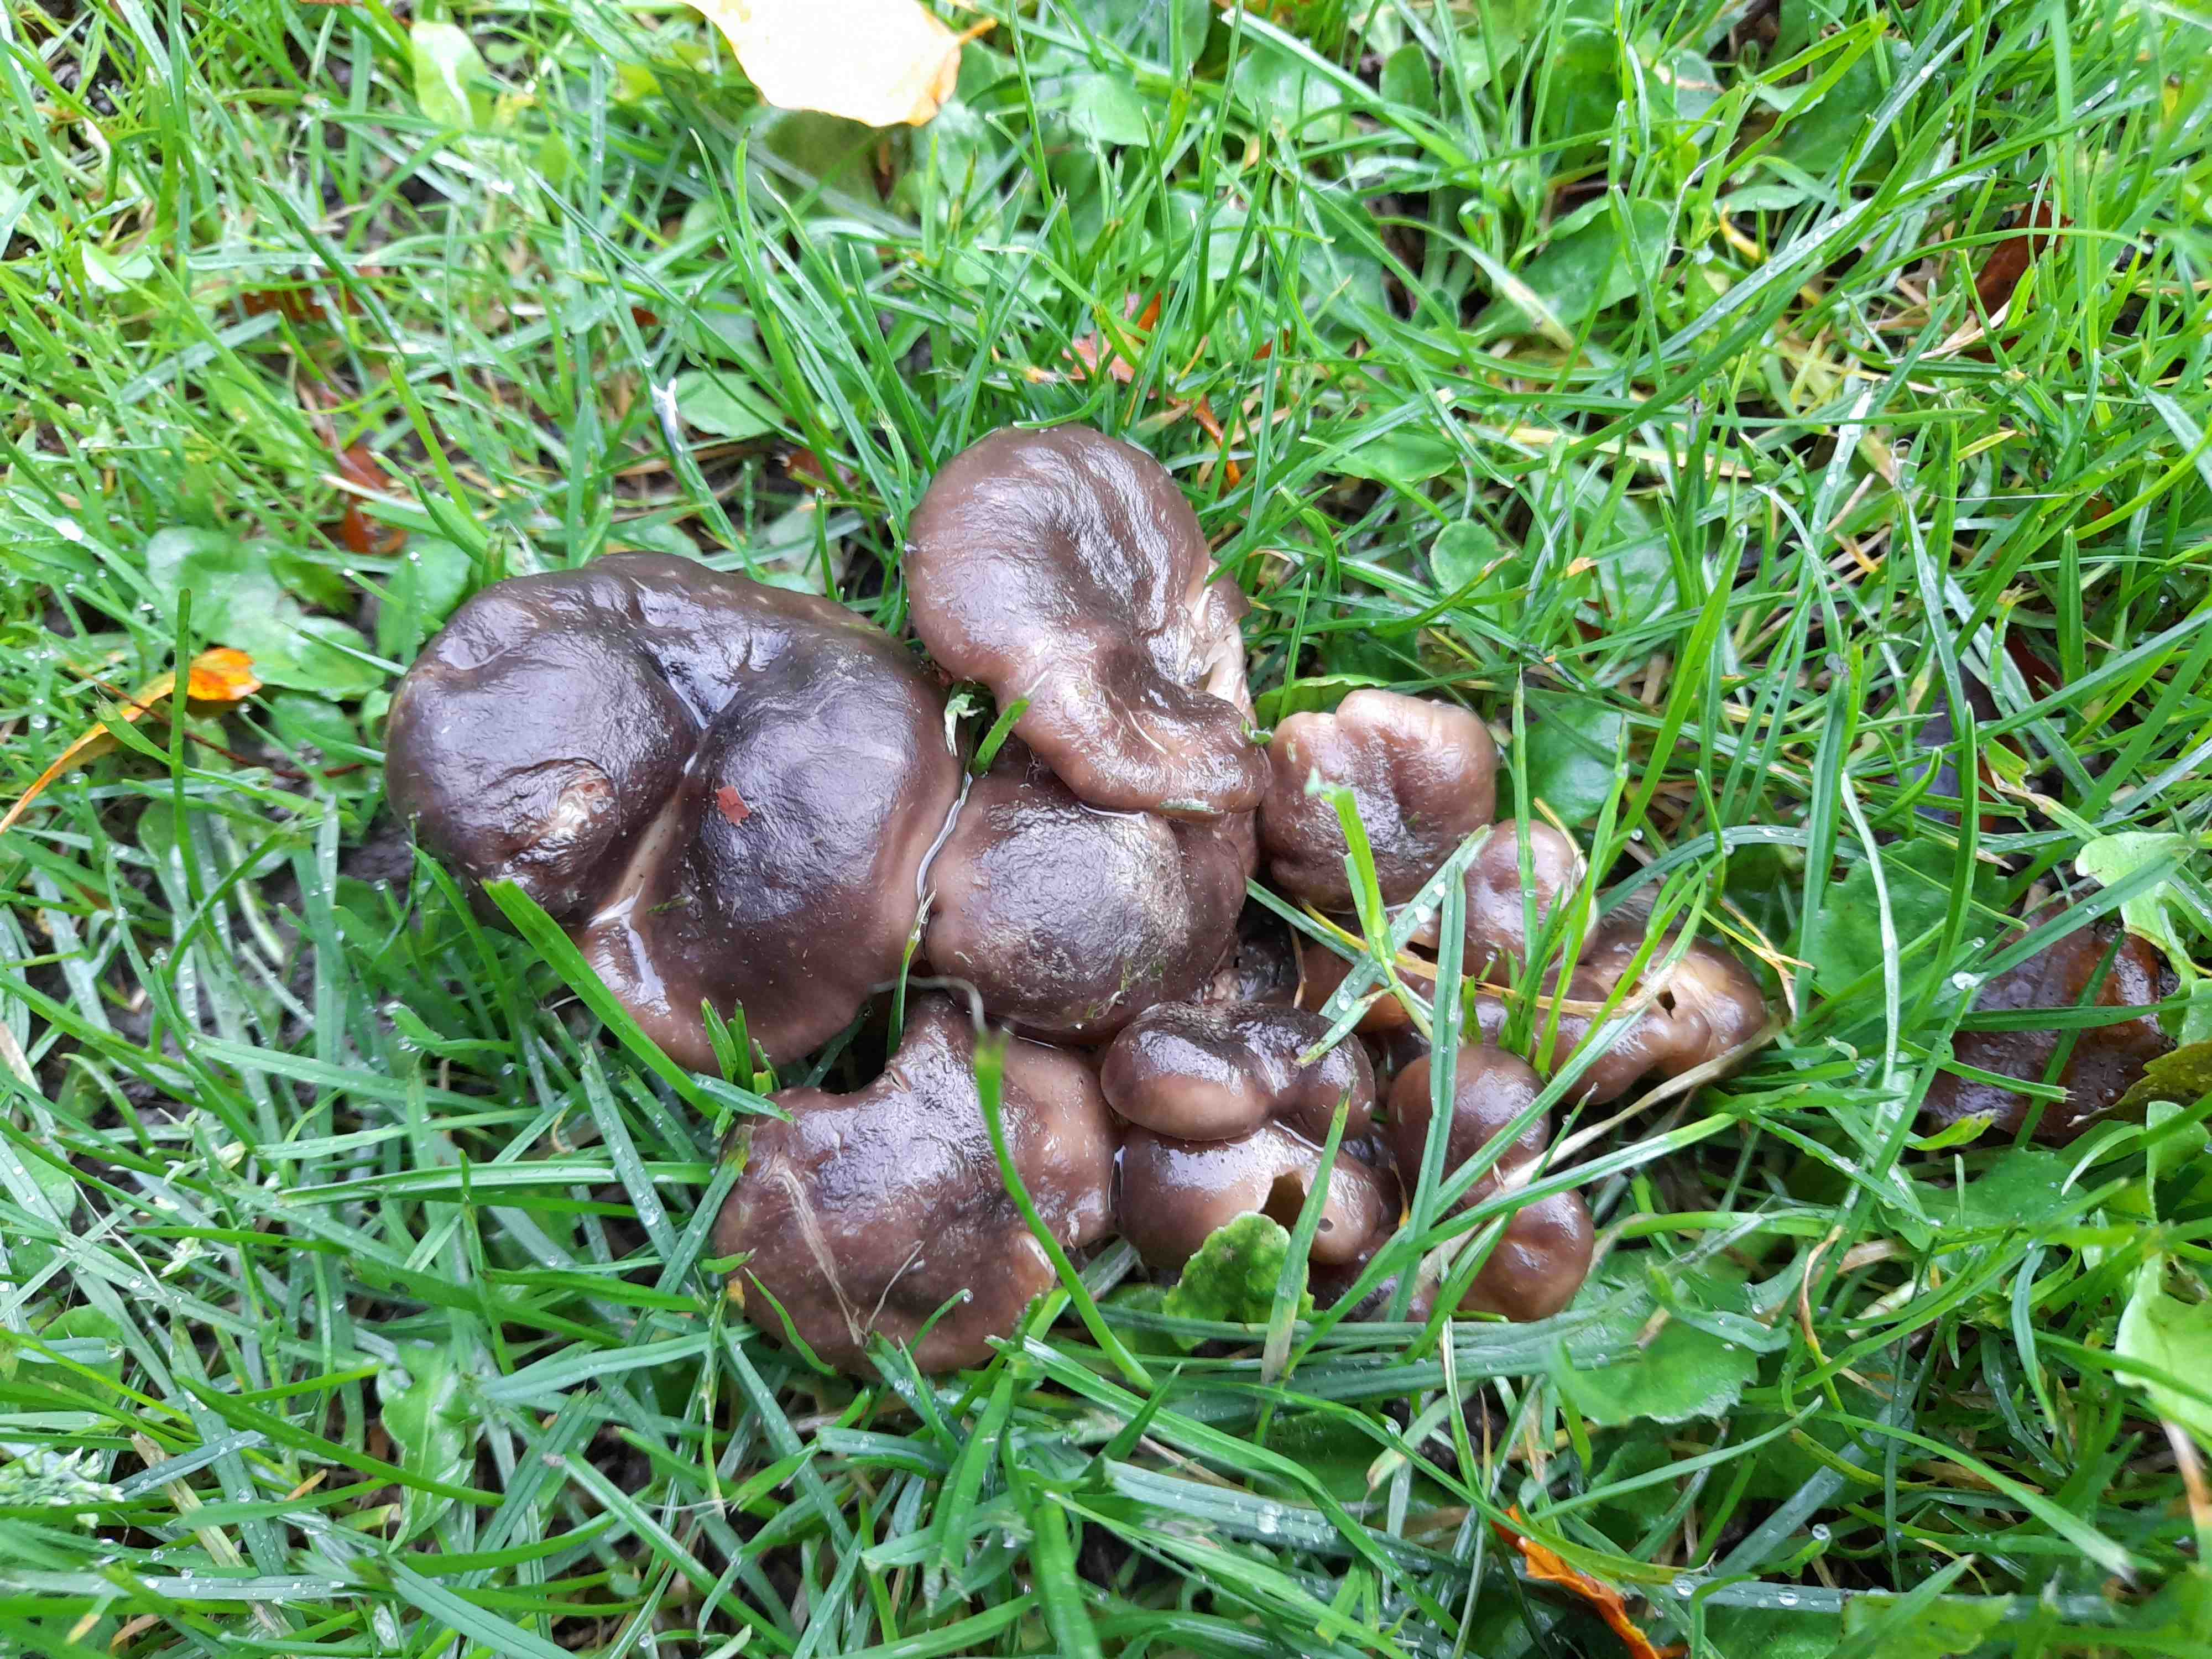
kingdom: Fungi
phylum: Basidiomycota
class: Agaricomycetes
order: Agaricales
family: Lyophyllaceae
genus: Lyophyllum
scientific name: Lyophyllum decastes
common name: røggrå gråblad
